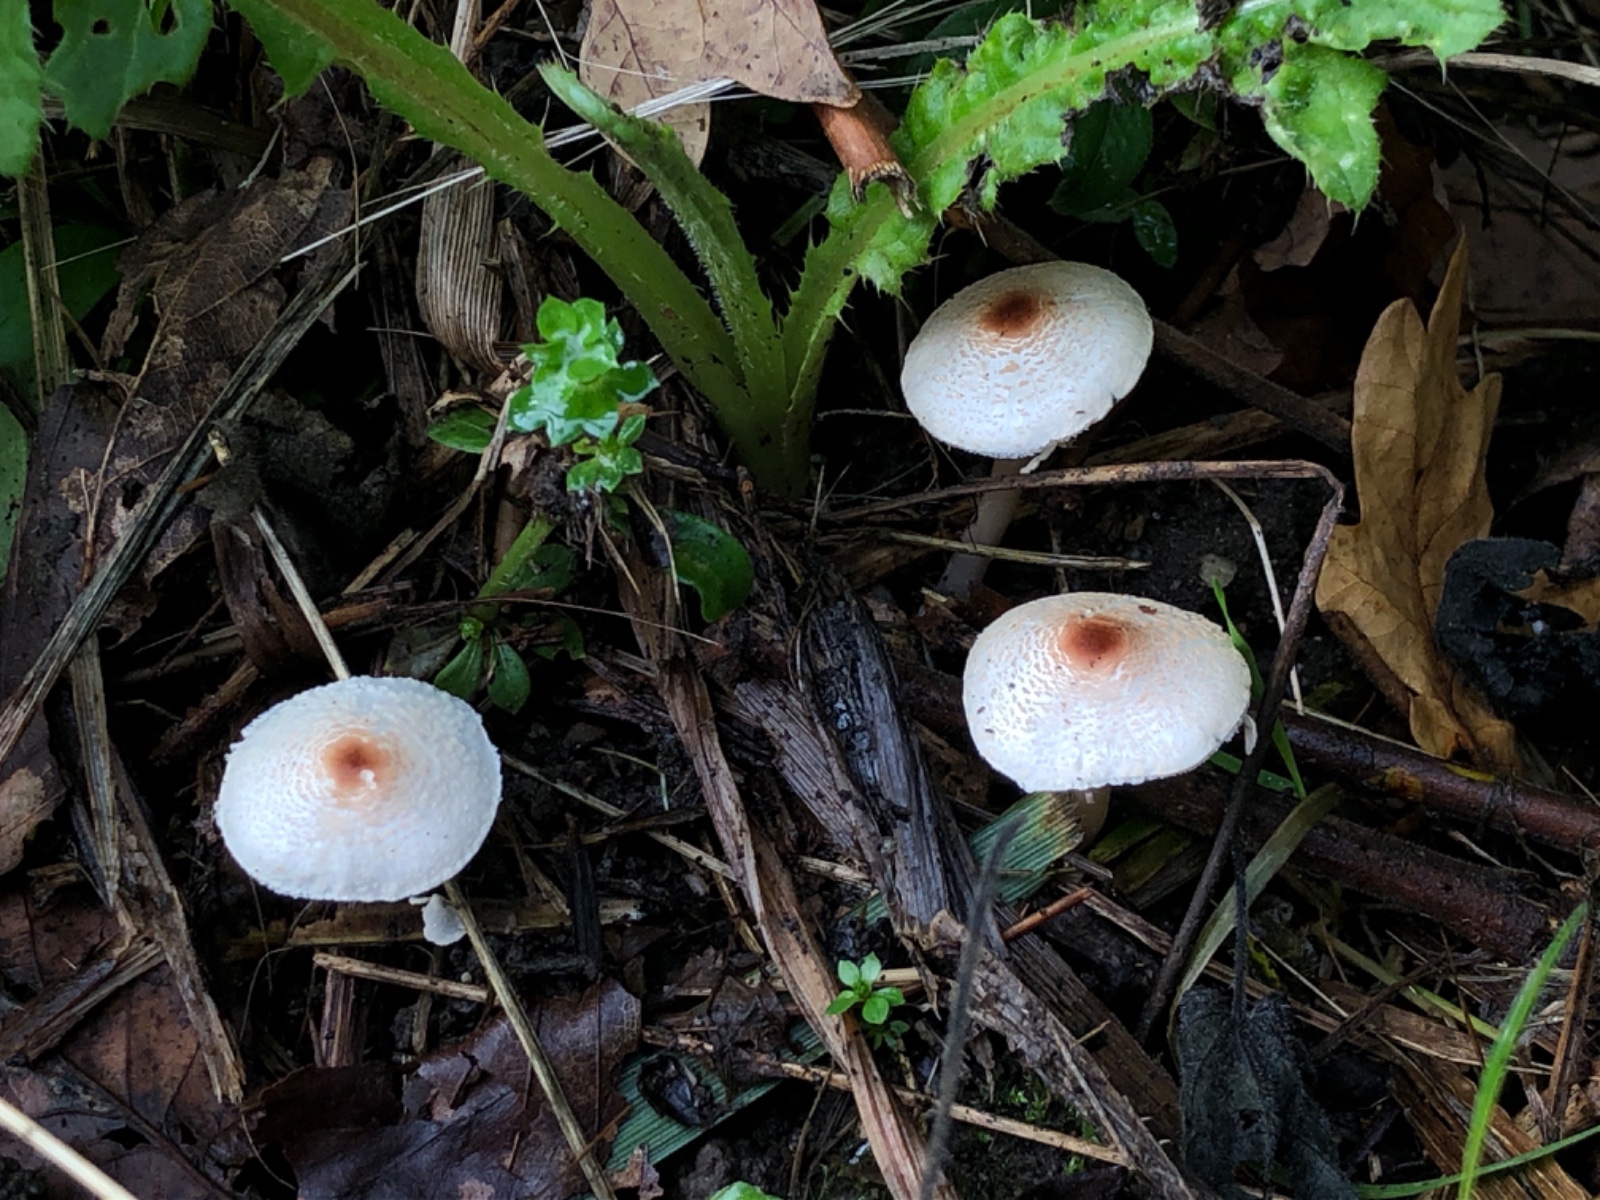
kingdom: Fungi
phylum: Basidiomycota
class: Agaricomycetes
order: Agaricales
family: Agaricaceae
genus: Lepiota
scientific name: Lepiota cristata
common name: stinkende parasolhat
